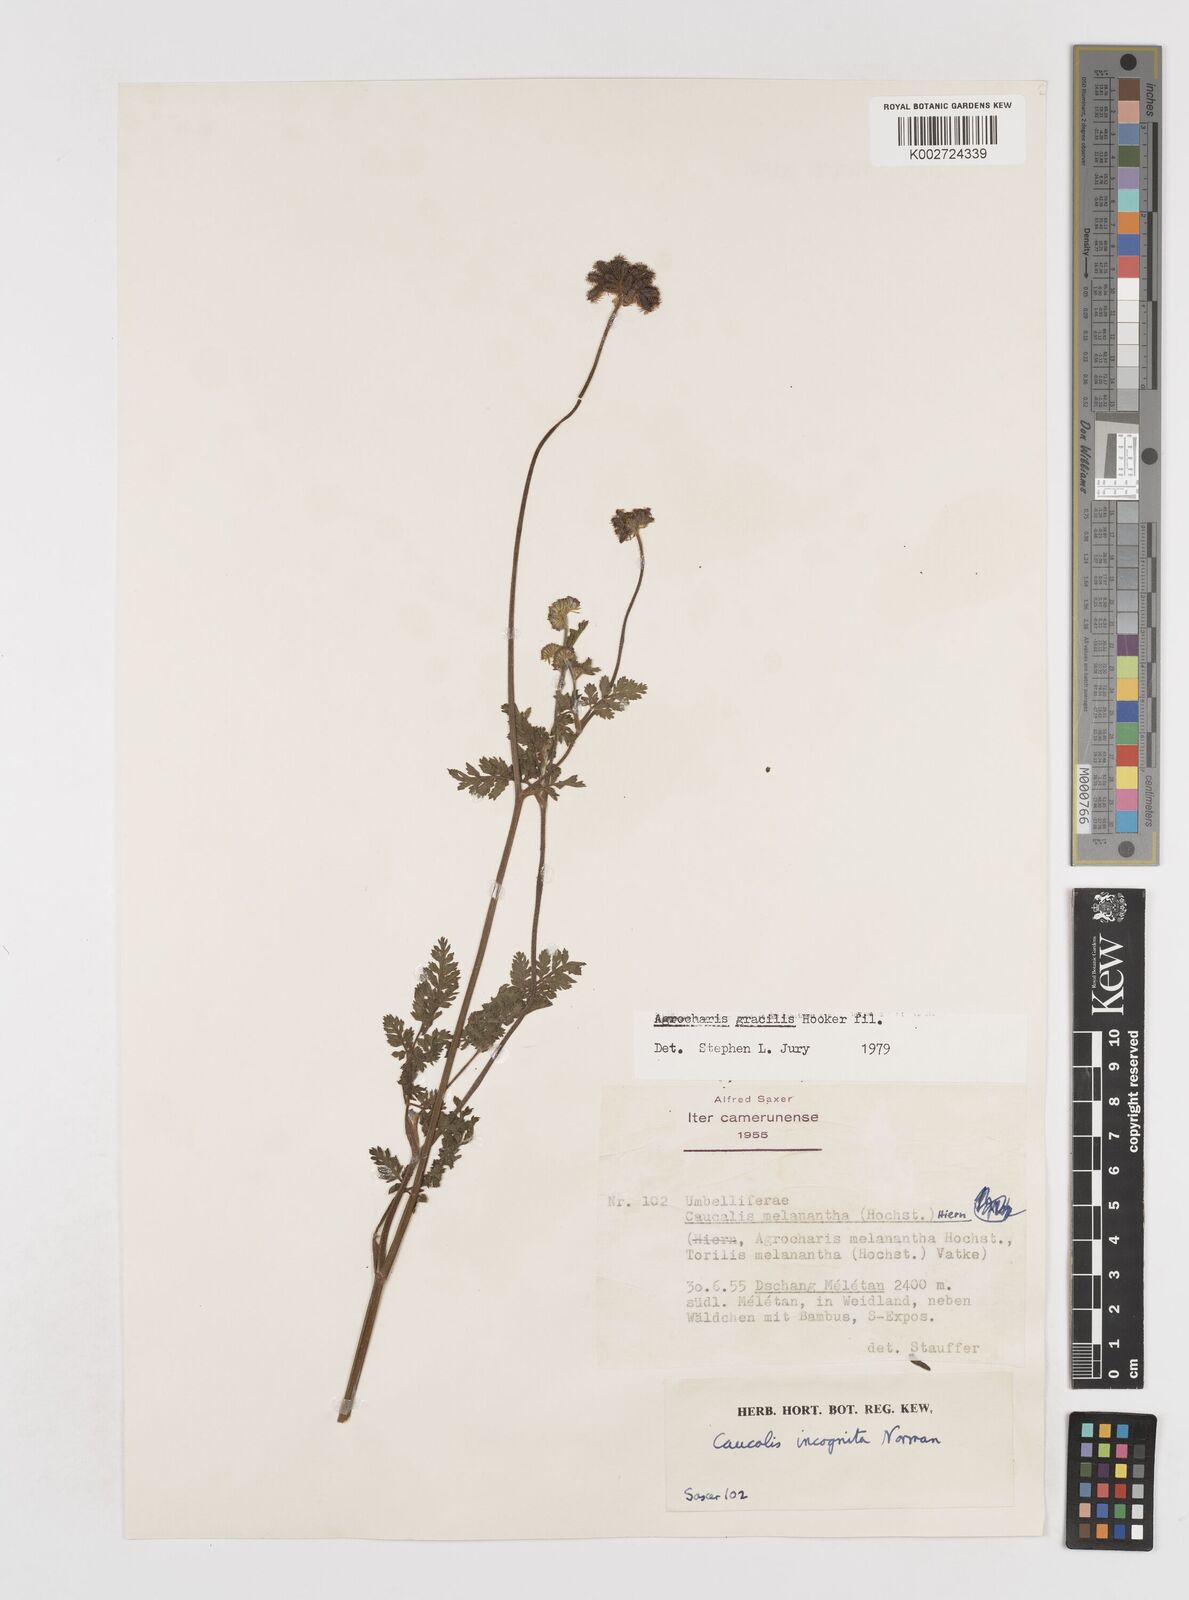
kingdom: Plantae
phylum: Tracheophyta
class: Magnoliopsida
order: Apiales
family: Apiaceae
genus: Daucus
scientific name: Daucus melananthus
